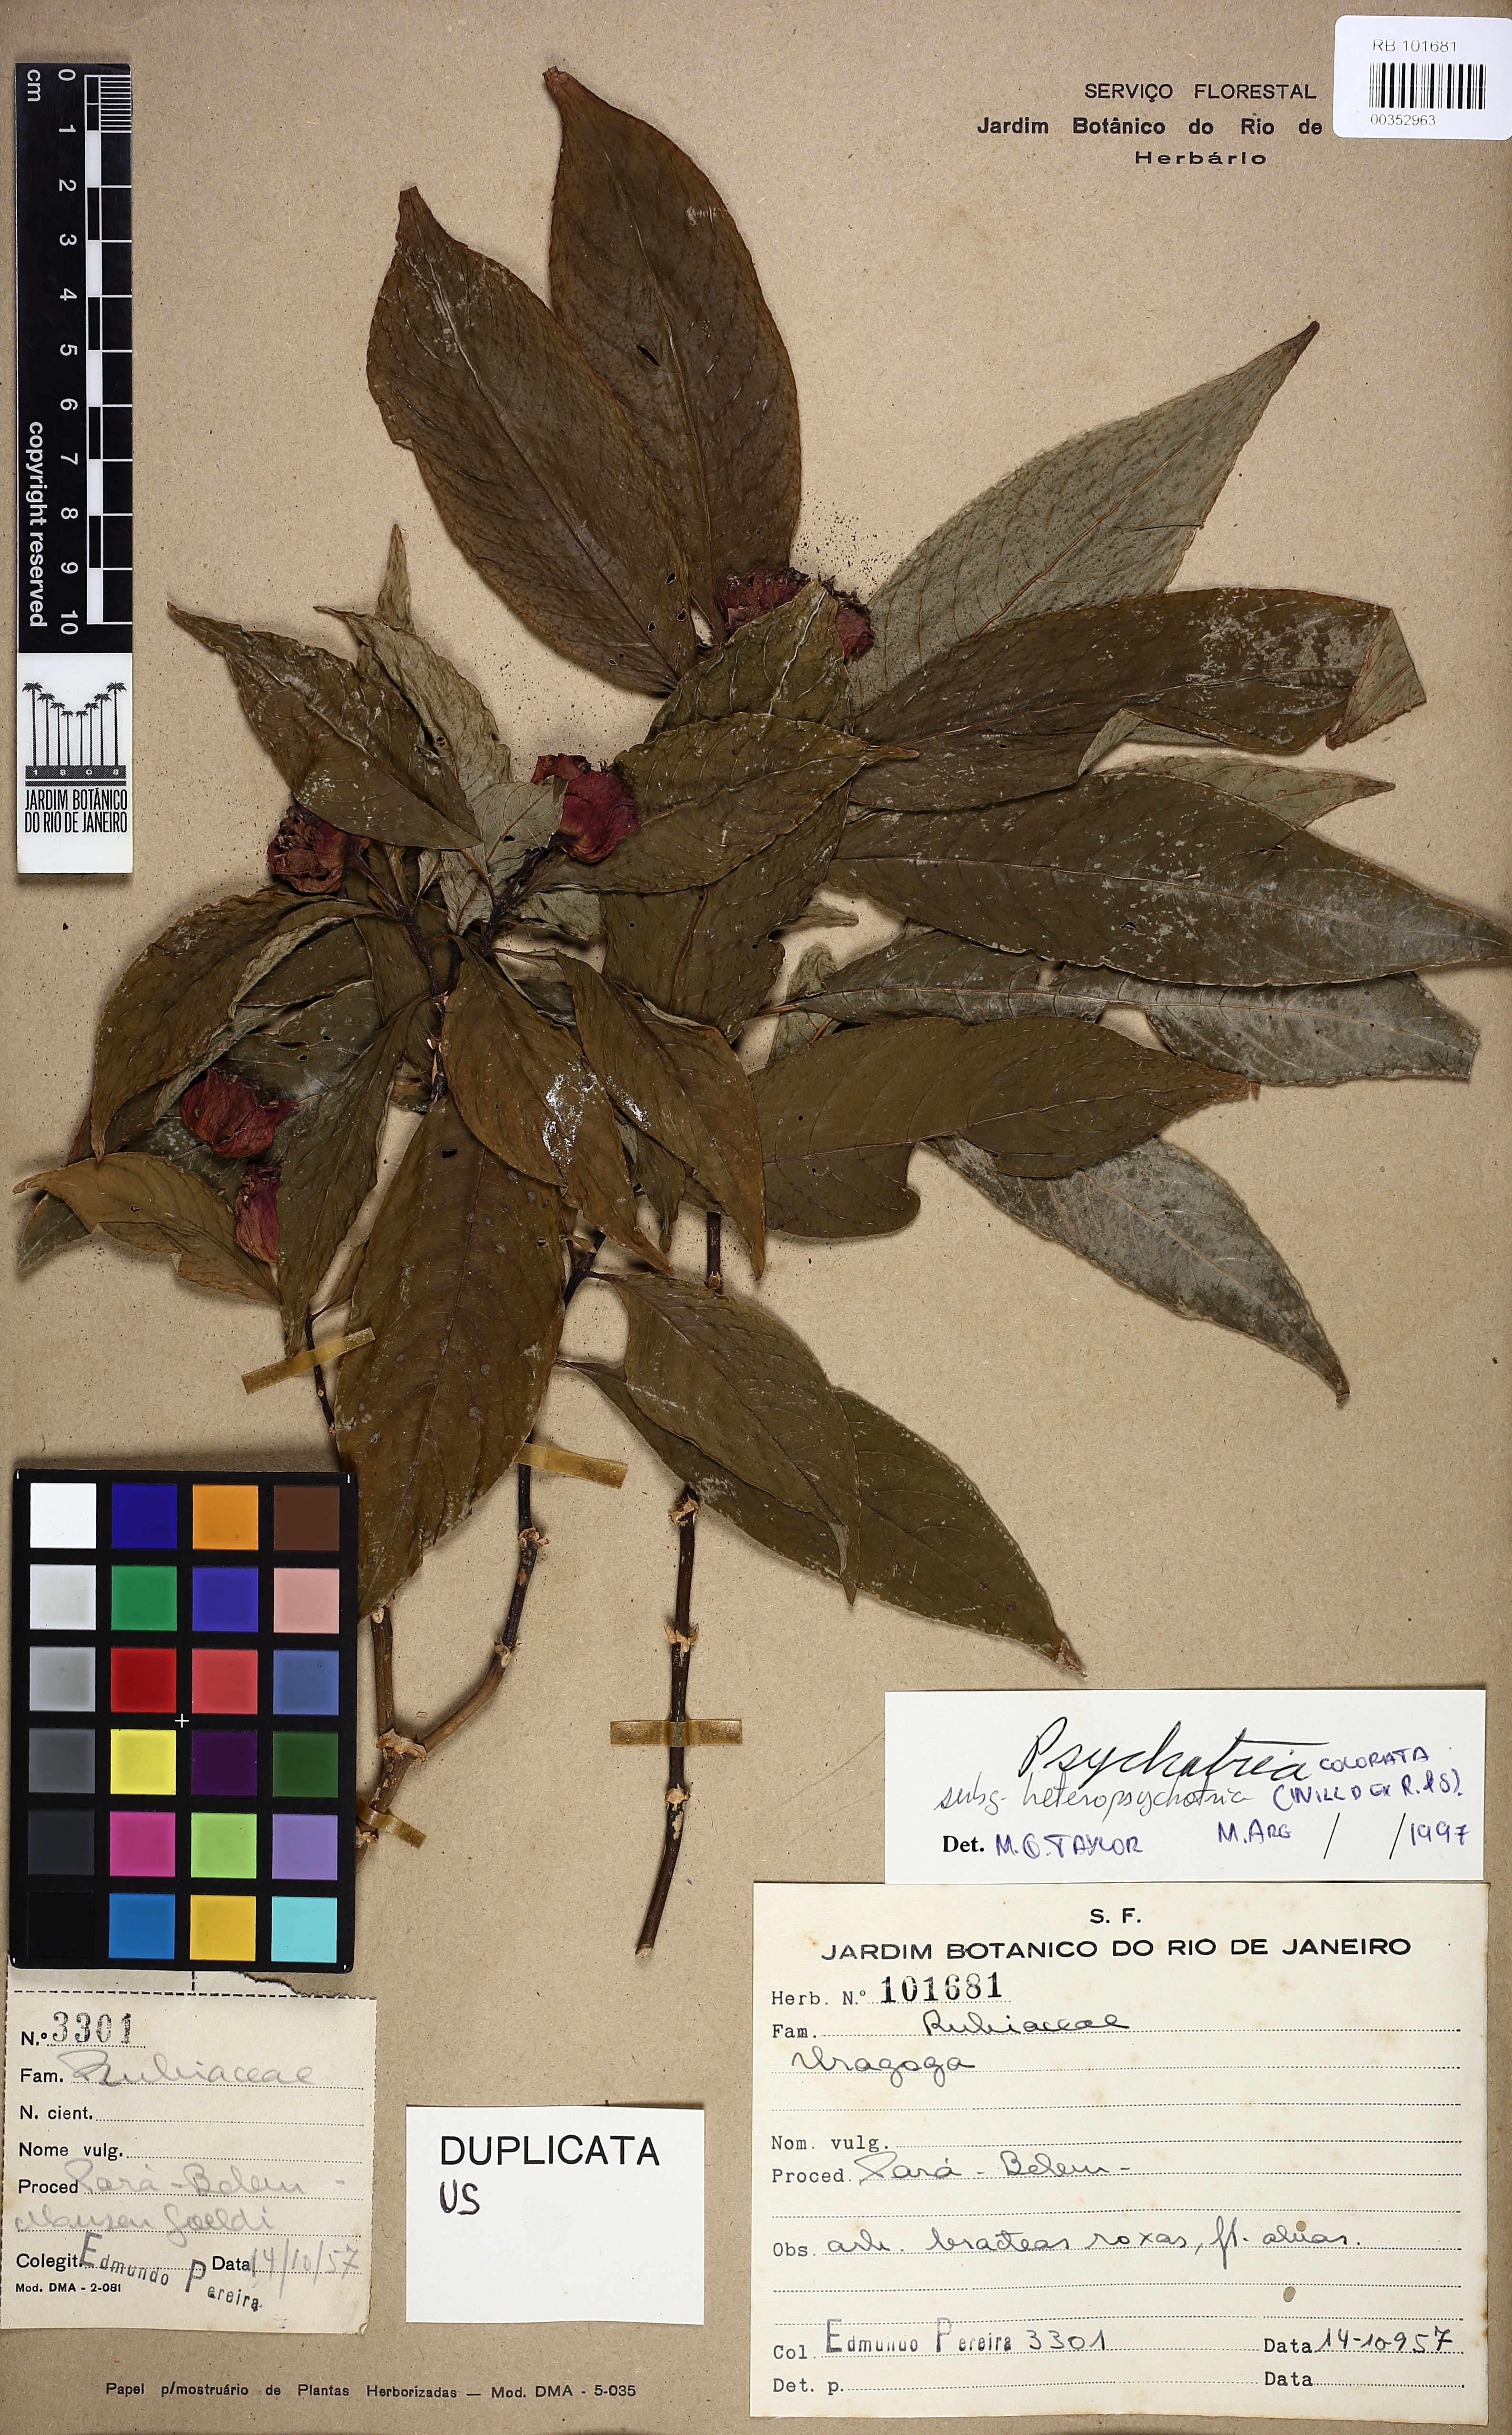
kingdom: Plantae
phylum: Tracheophyta
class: Magnoliopsida
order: Gentianales
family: Rubiaceae
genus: Palicourea
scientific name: Palicourea colorata
